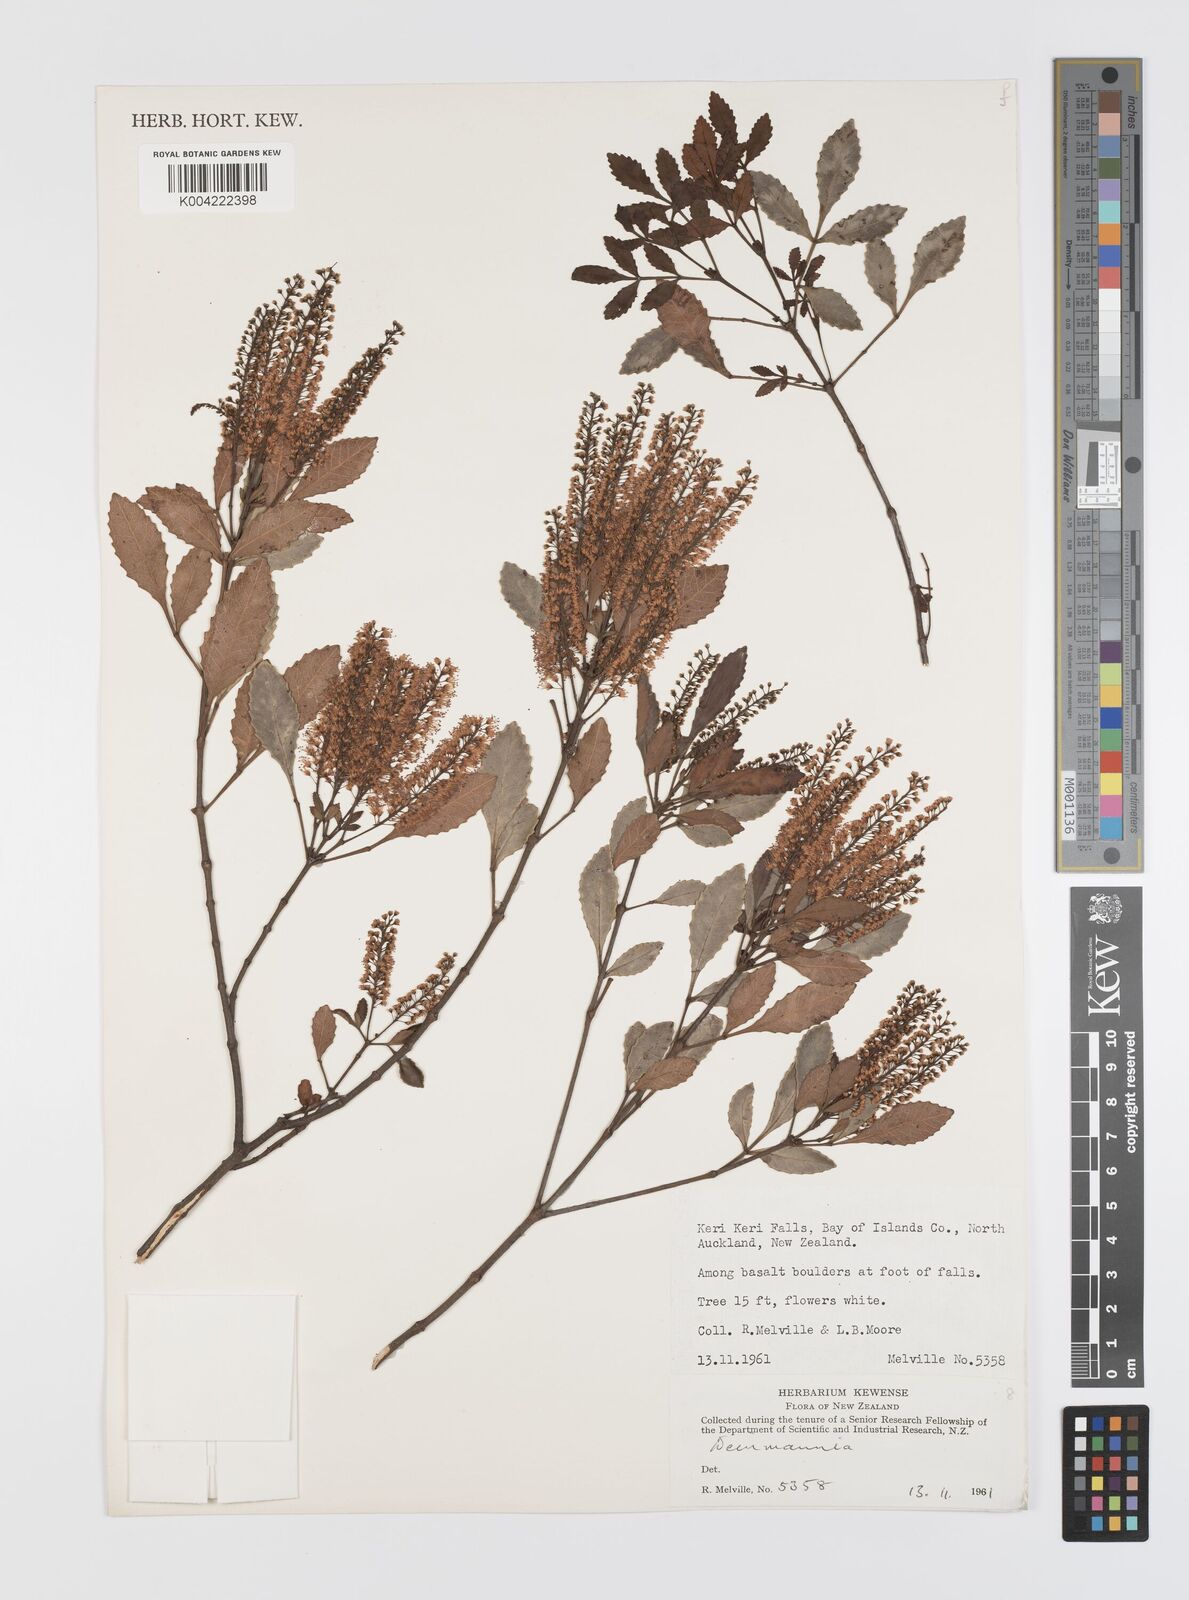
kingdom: Plantae
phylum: Tracheophyta
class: Magnoliopsida
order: Oxalidales
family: Cunoniaceae
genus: Weinmannia
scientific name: Weinmannia
